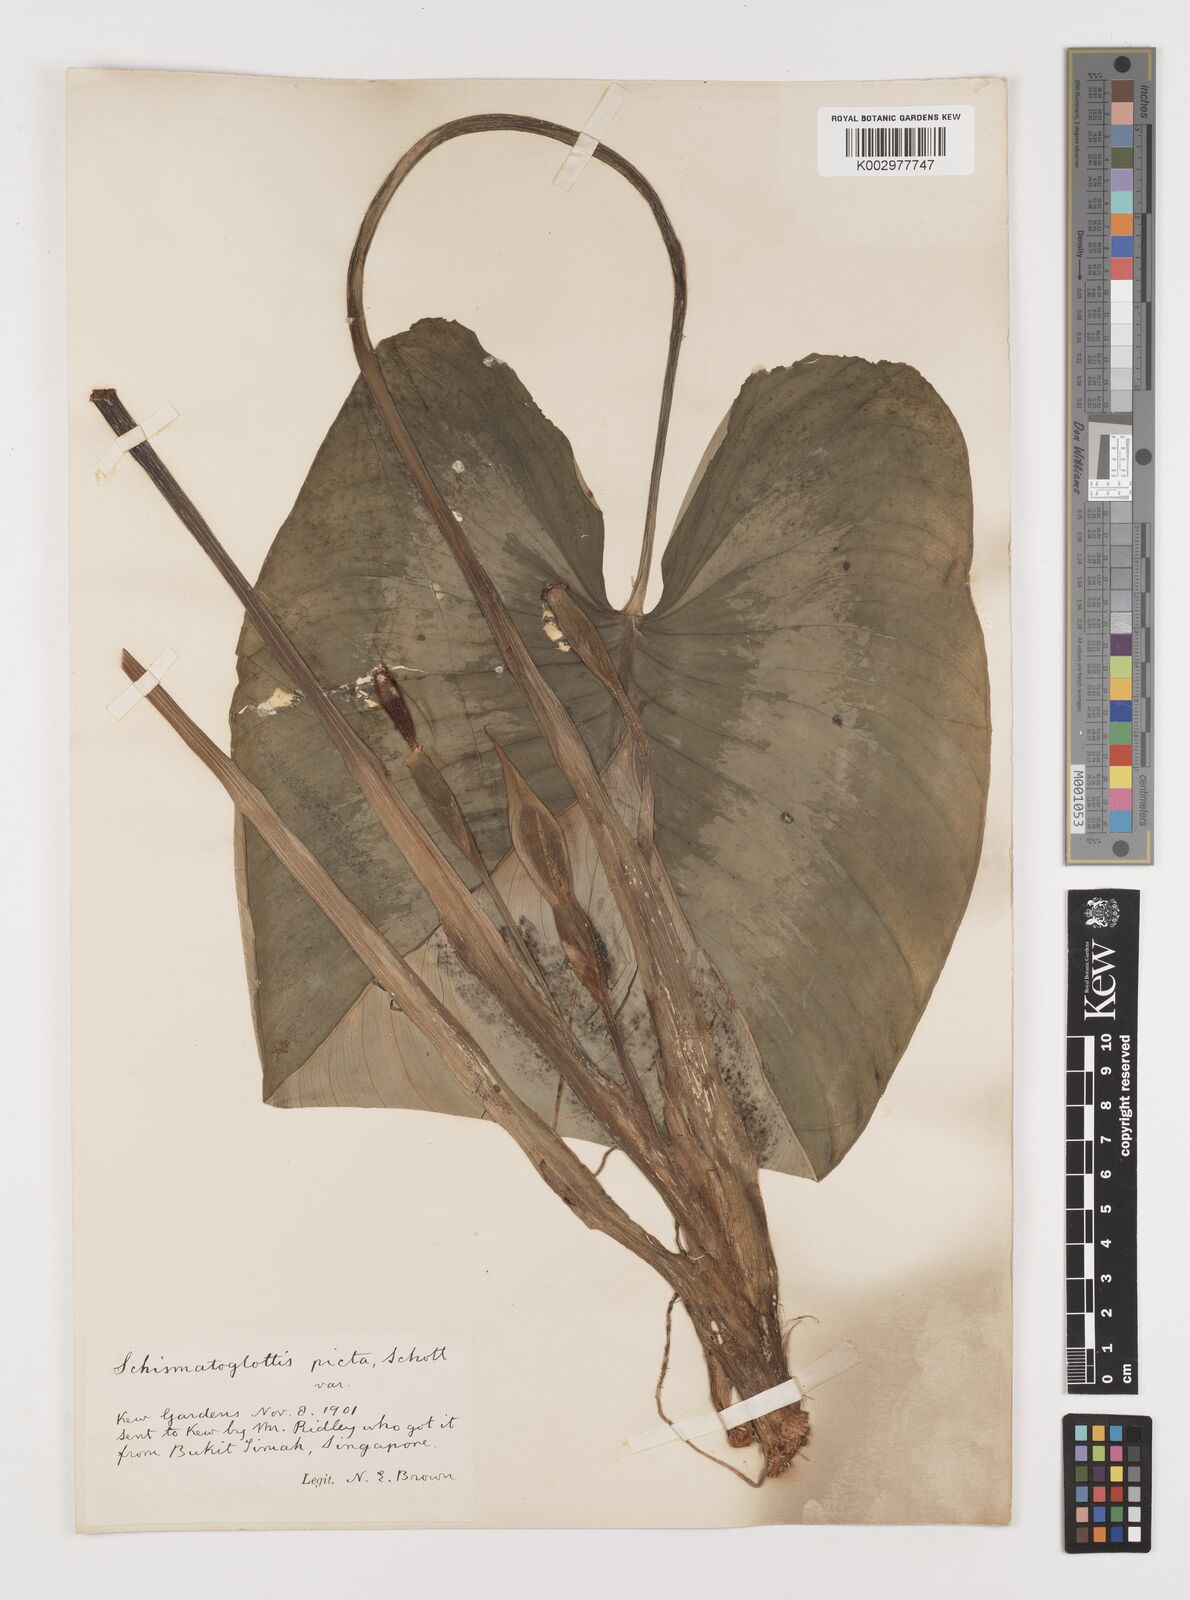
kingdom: Plantae
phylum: Tracheophyta
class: Liliopsida
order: Alismatales
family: Araceae
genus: Schismatoglottis
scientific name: Schismatoglottis calyptrata
